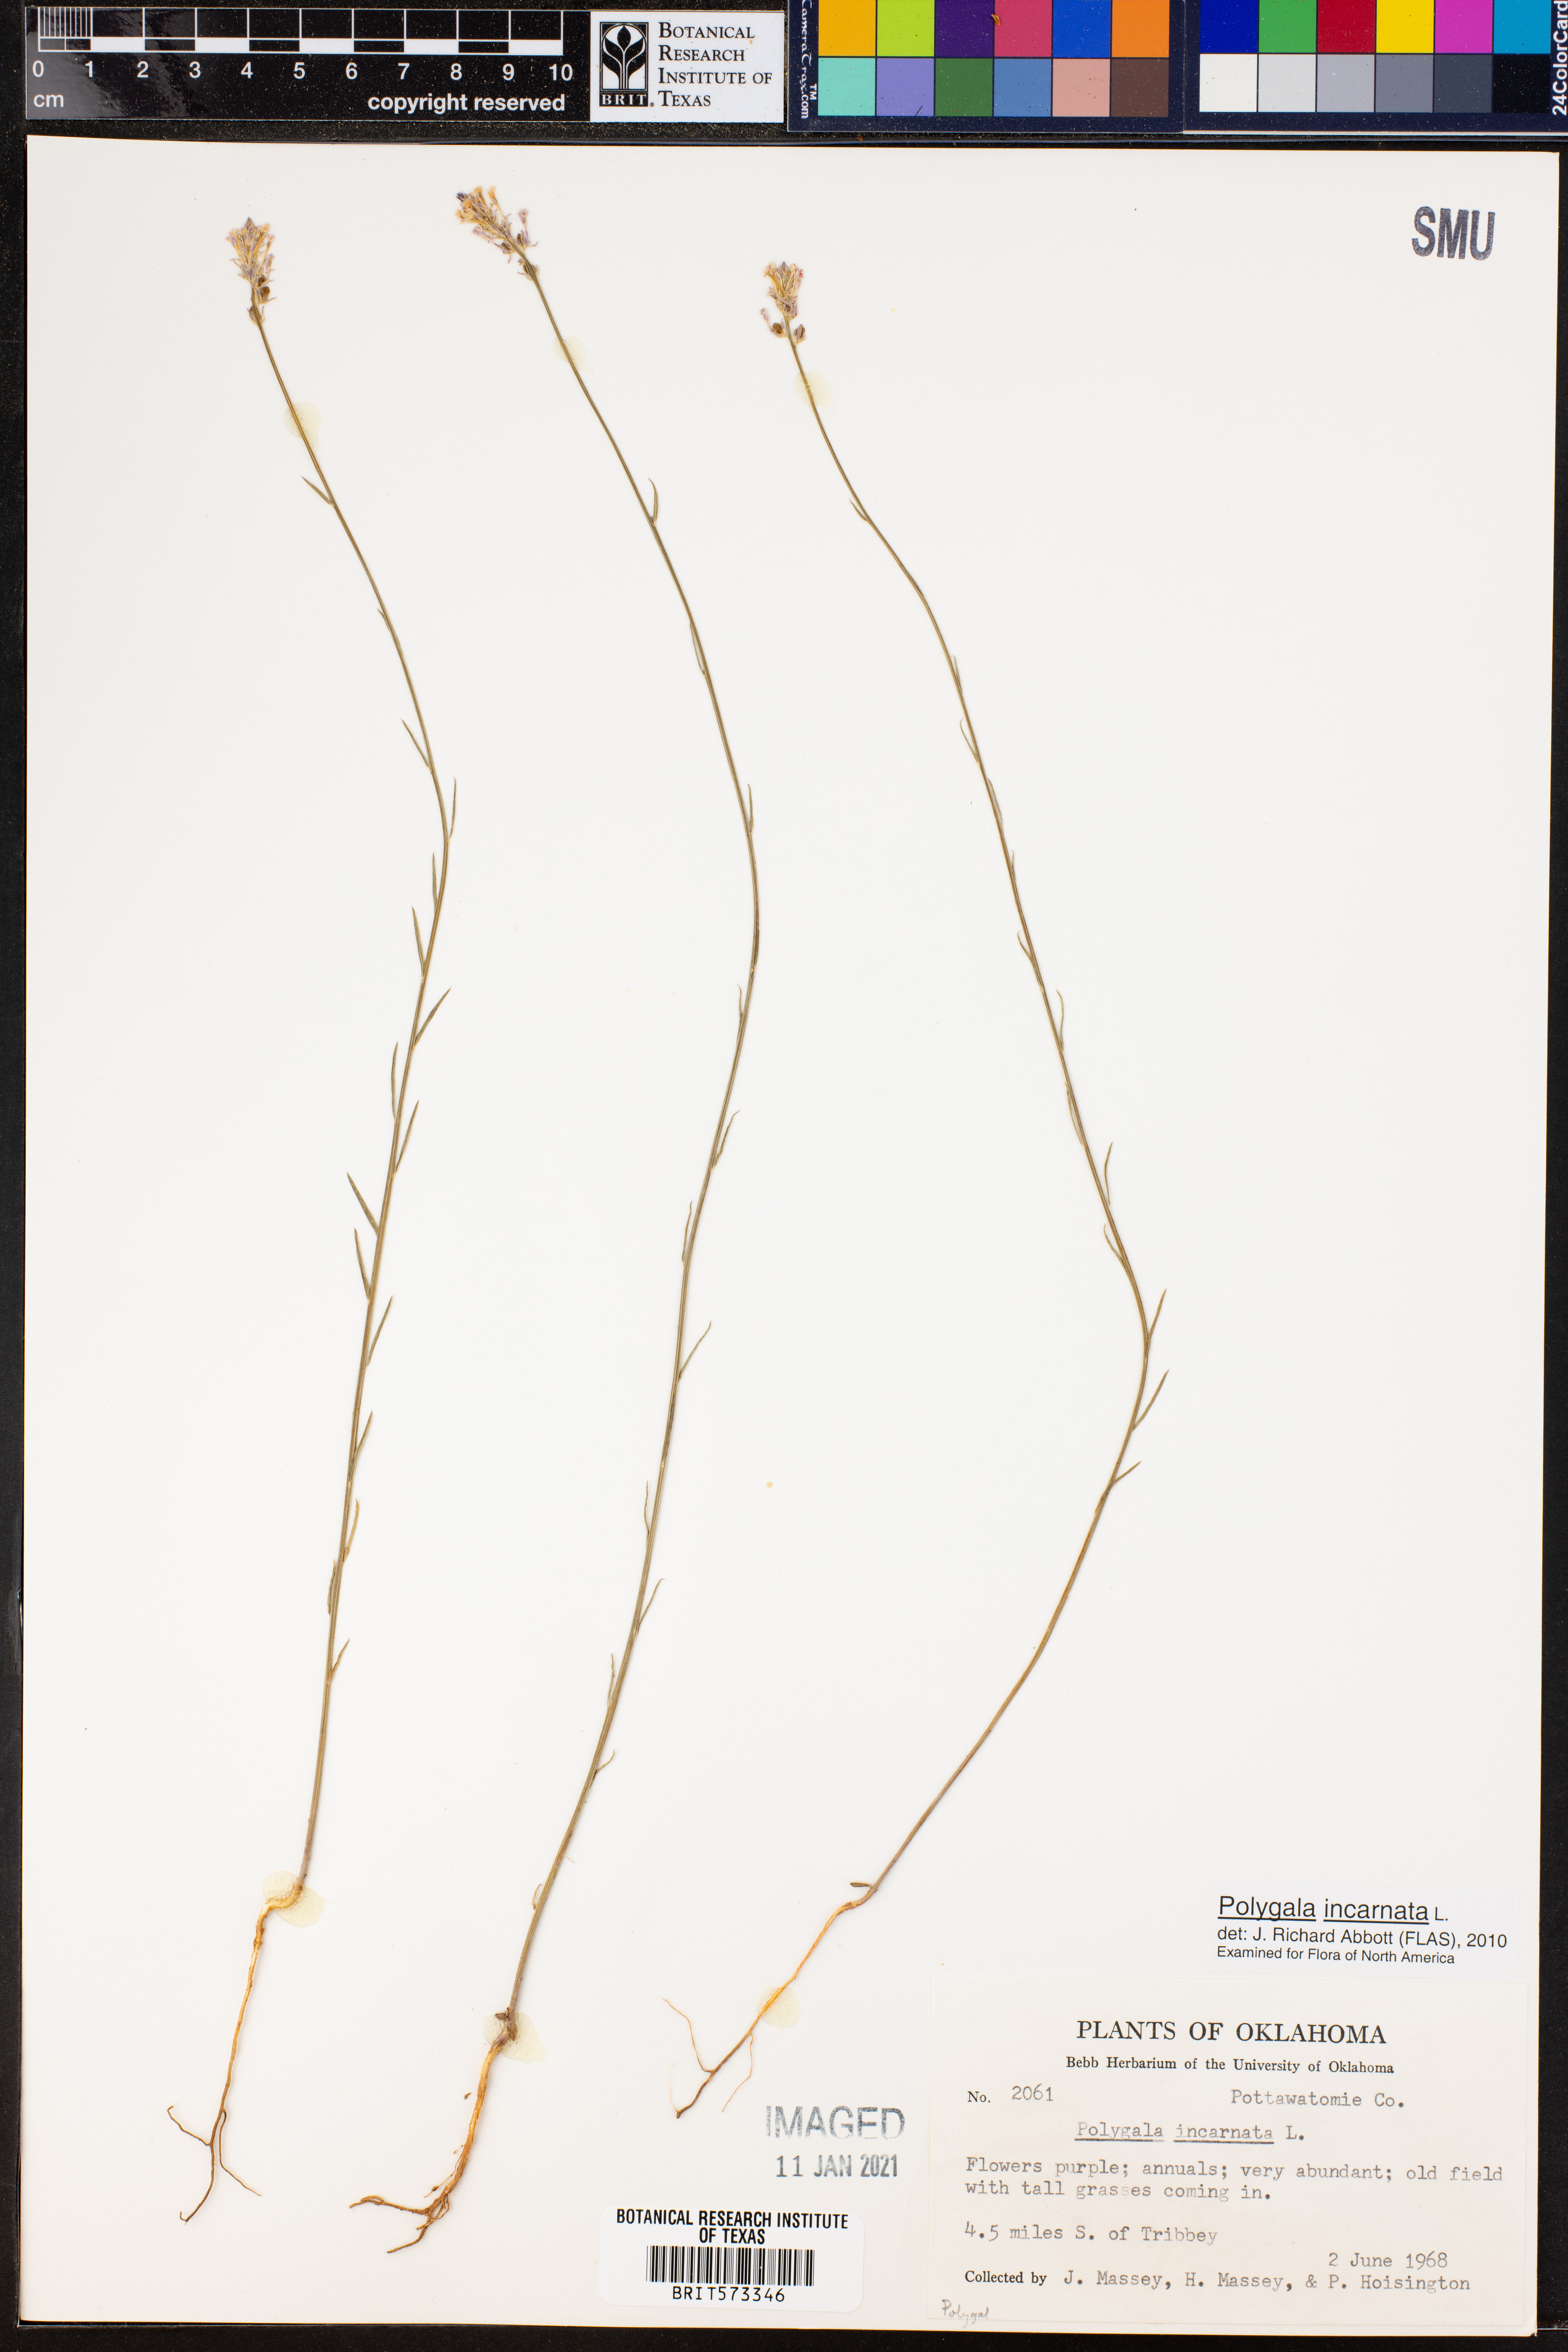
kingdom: Plantae
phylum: Tracheophyta
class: Magnoliopsida
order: Fabales
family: Polygalaceae
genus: Polygala
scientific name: Polygala incarnata
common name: Pink milkwort
